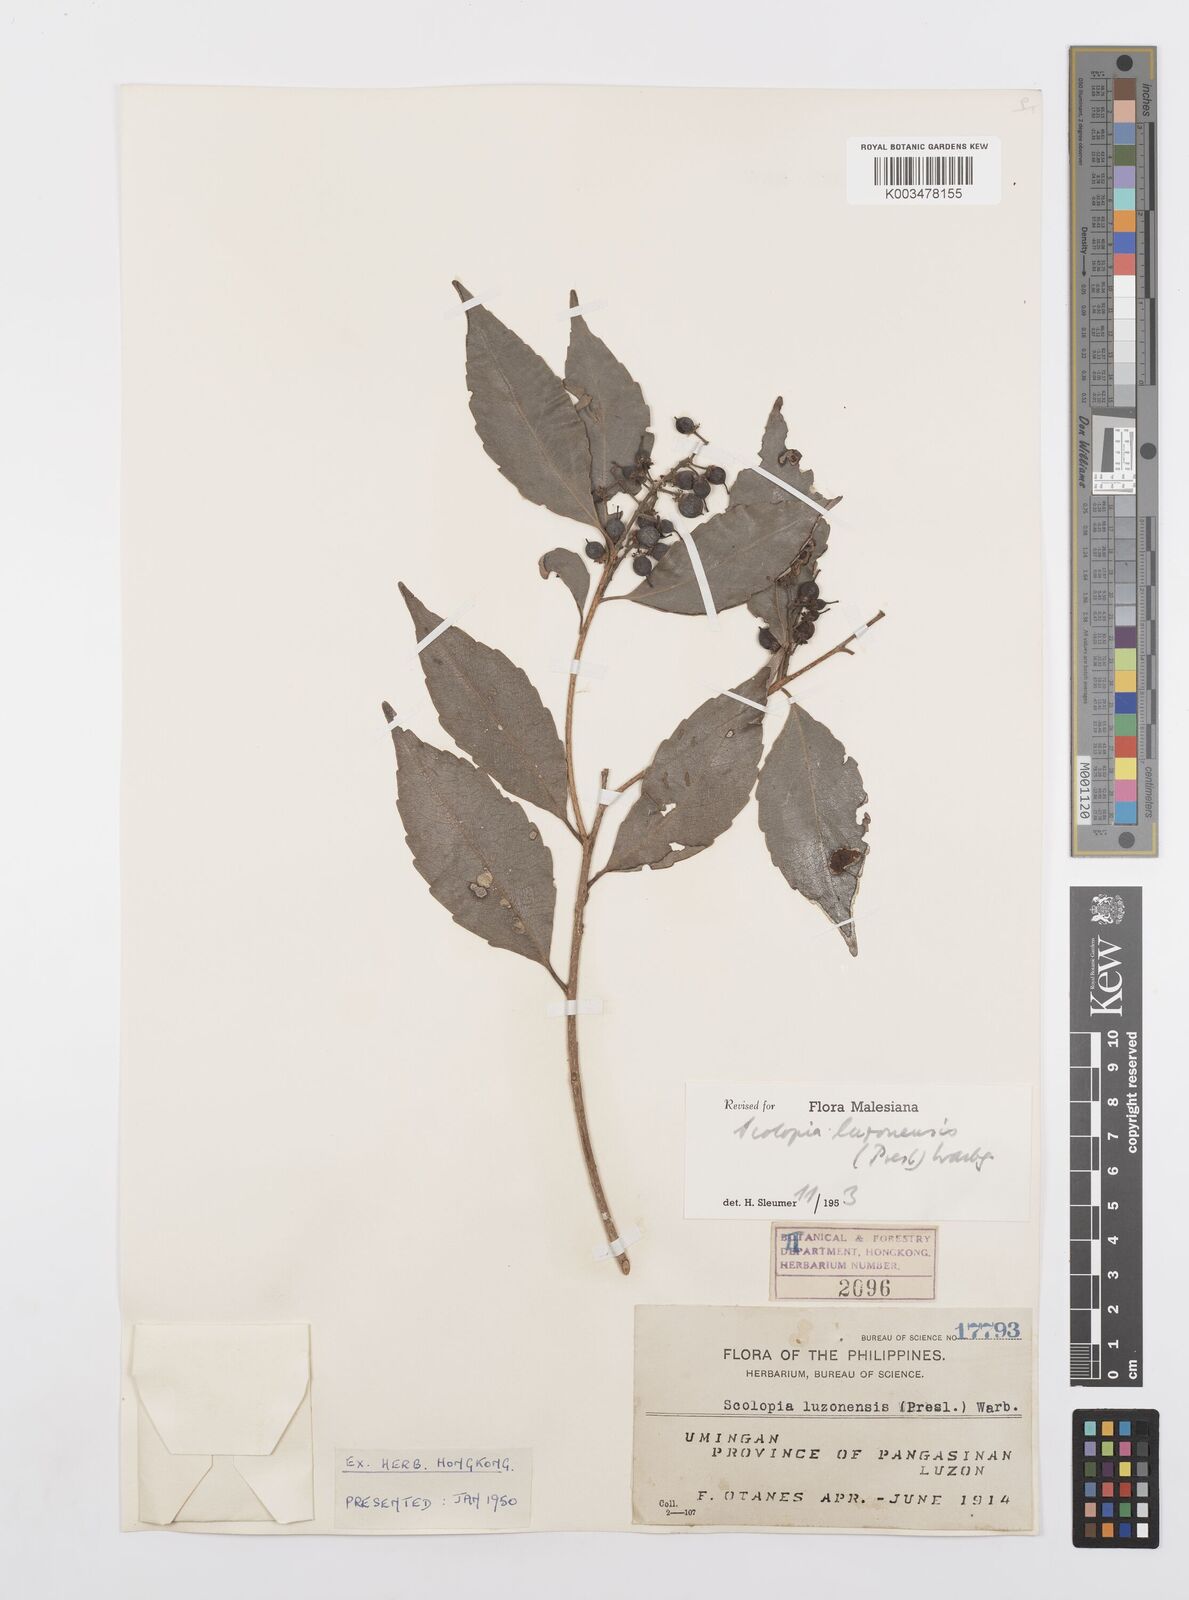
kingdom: Plantae
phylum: Tracheophyta
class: Magnoliopsida
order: Malpighiales
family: Salicaceae
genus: Scolopia
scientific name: Scolopia luzonensis
